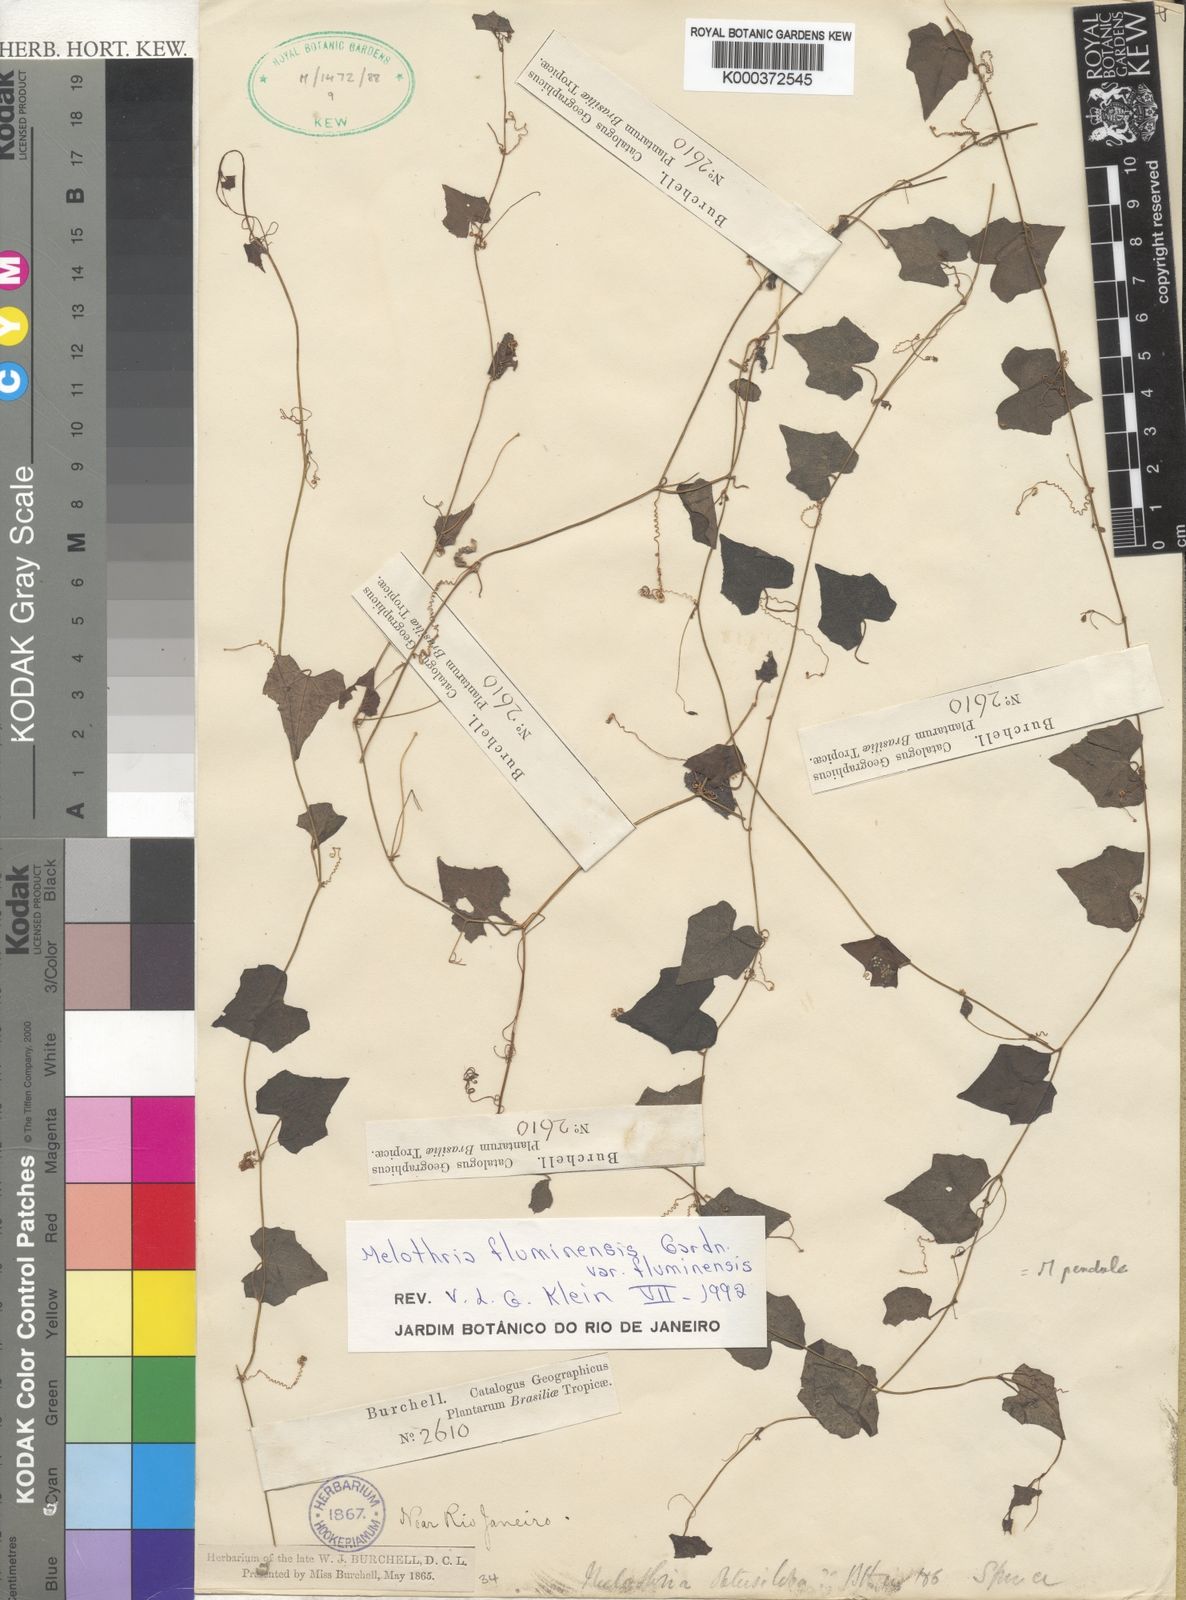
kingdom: Plantae
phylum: Tracheophyta
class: Magnoliopsida
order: Cucurbitales
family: Cucurbitaceae
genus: Melothria
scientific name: Melothria
